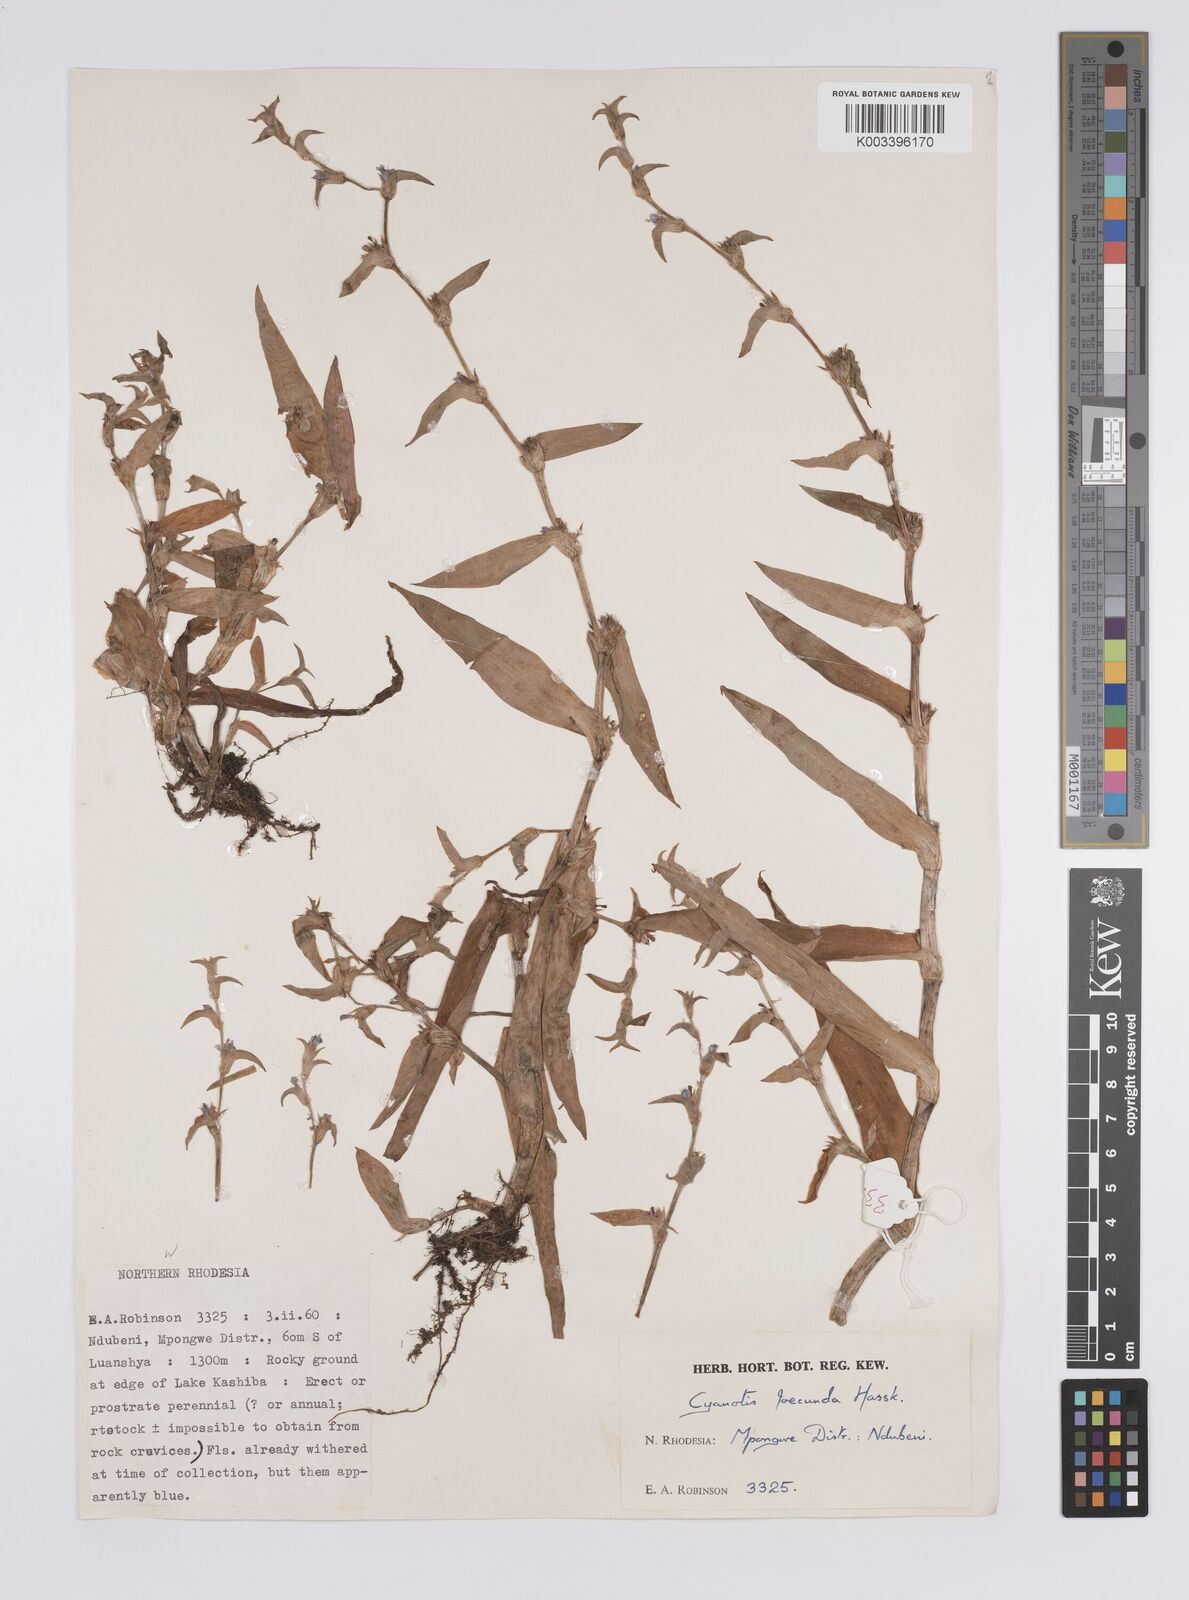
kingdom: Plantae
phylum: Tracheophyta
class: Liliopsida
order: Commelinales
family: Commelinaceae
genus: Cyanotis
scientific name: Cyanotis foecunda
